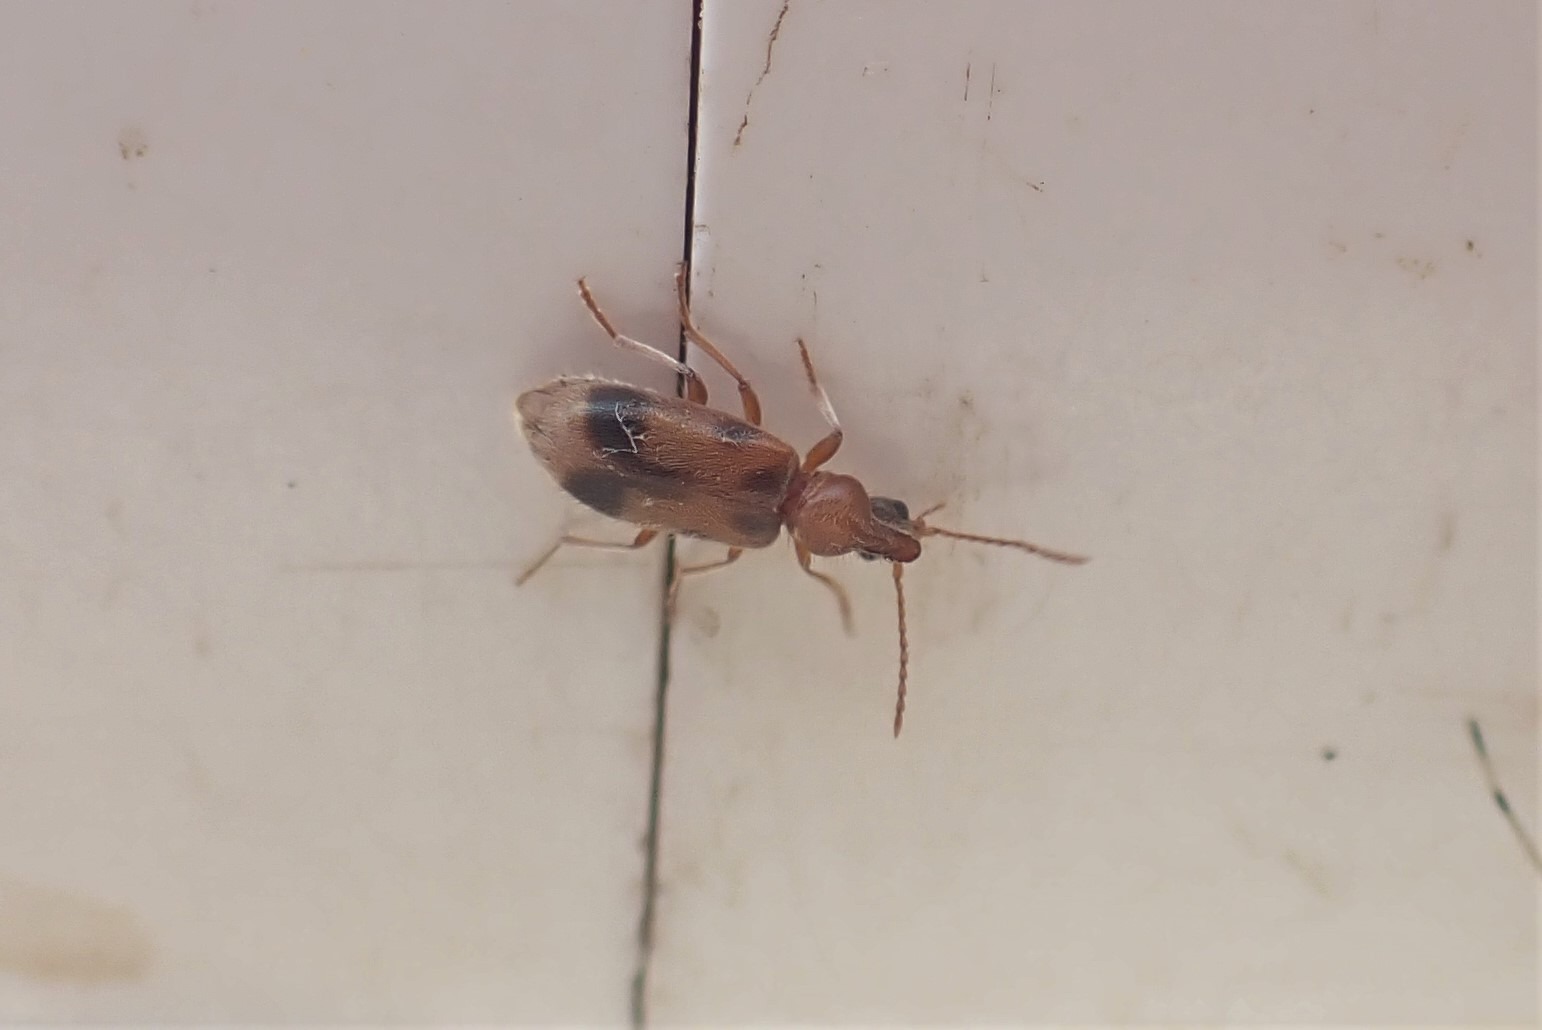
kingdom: Animalia
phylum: Arthropoda
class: Insecta
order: Coleoptera
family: Anthicidae
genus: Notoxus
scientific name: Notoxus monoceros
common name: Enhjørning
